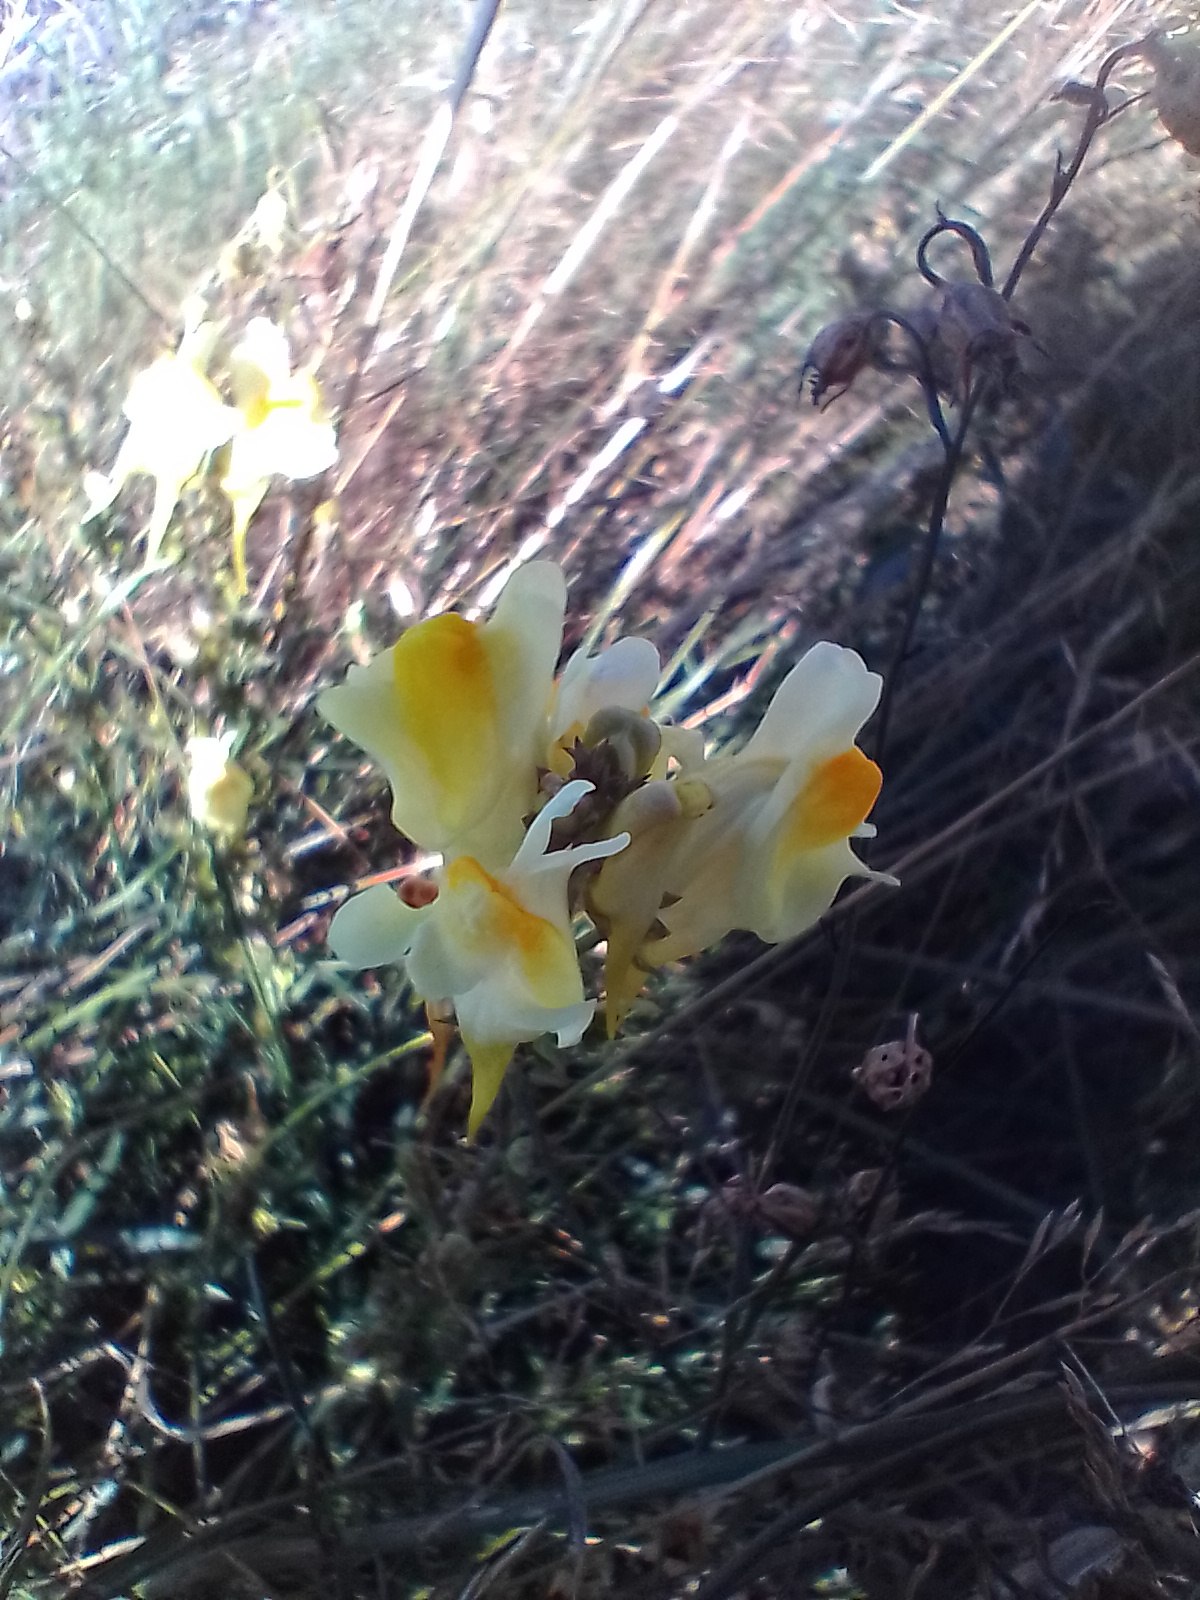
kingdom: Plantae
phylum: Tracheophyta
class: Magnoliopsida
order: Lamiales
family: Plantaginaceae
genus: Linaria
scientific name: Linaria vulgaris
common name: Almindelig torskemund
